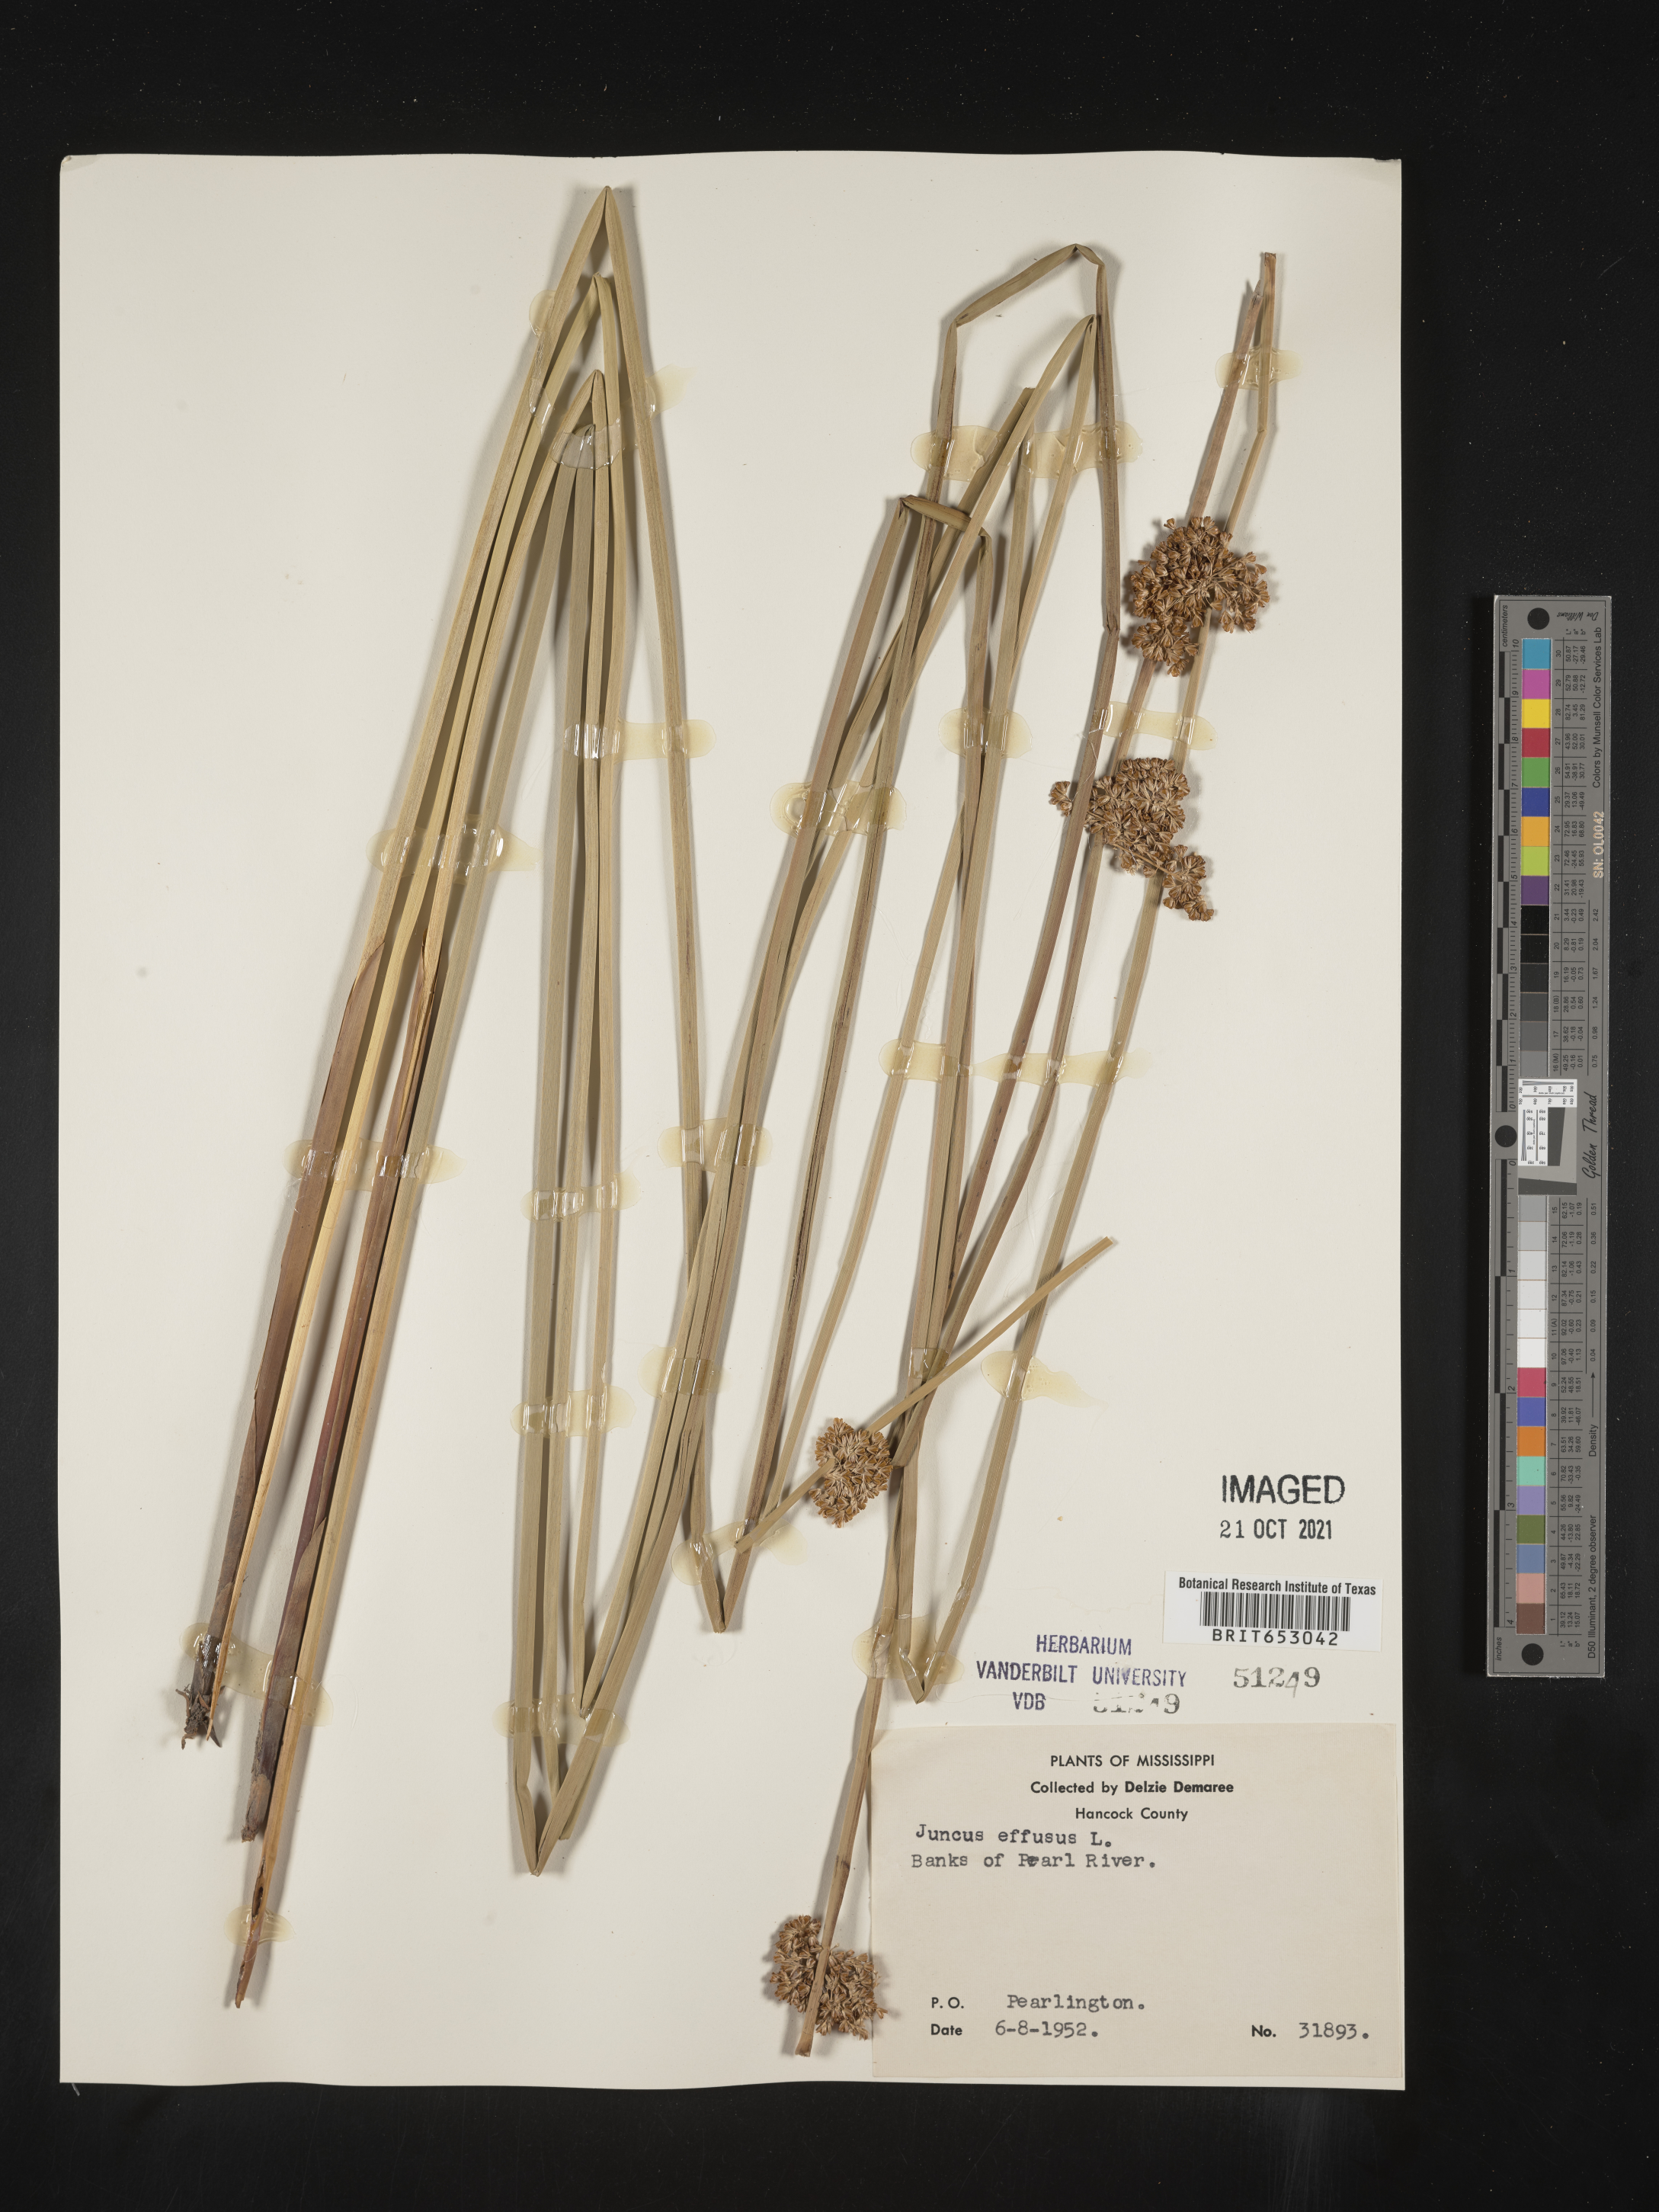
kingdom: Plantae
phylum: Tracheophyta
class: Liliopsida
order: Poales
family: Juncaceae
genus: Juncus
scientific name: Juncus effusus
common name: Soft rush
